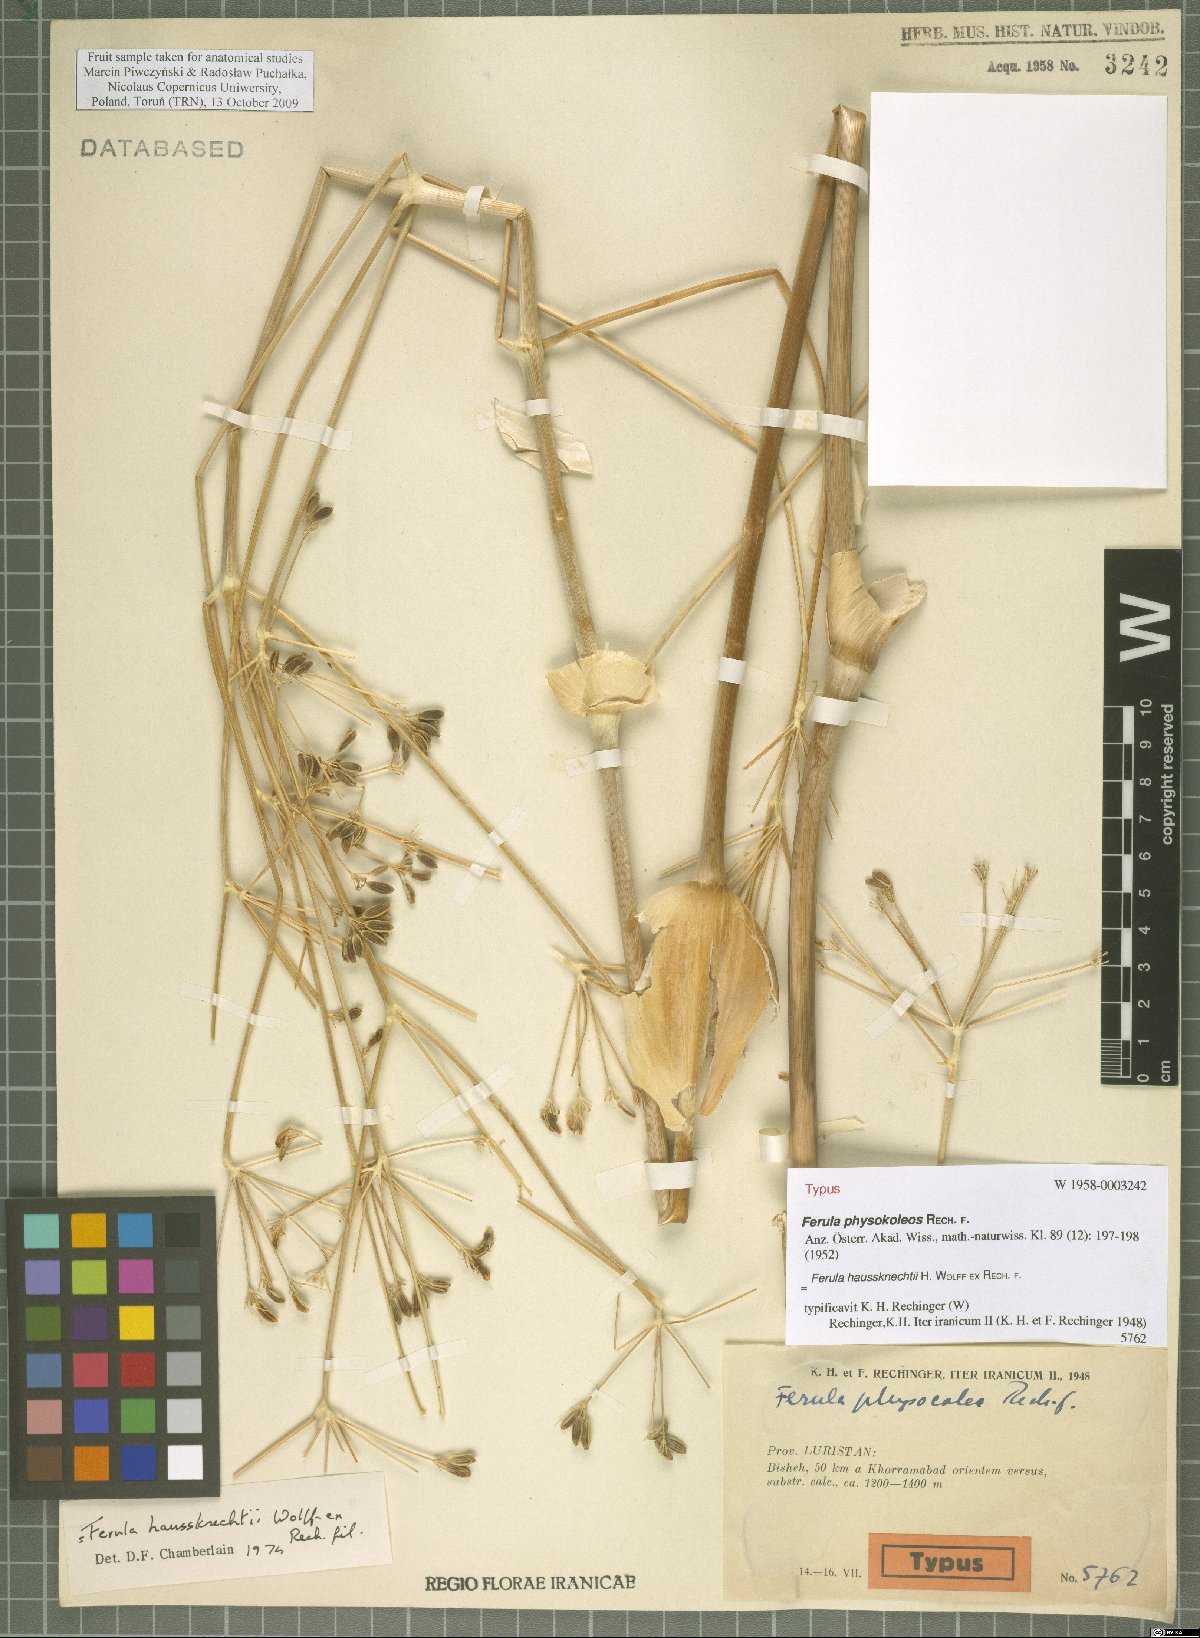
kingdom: Plantae
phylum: Tracheophyta
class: Magnoliopsida
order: Apiales
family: Apiaceae
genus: Ferula
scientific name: Ferula haussknechtii
